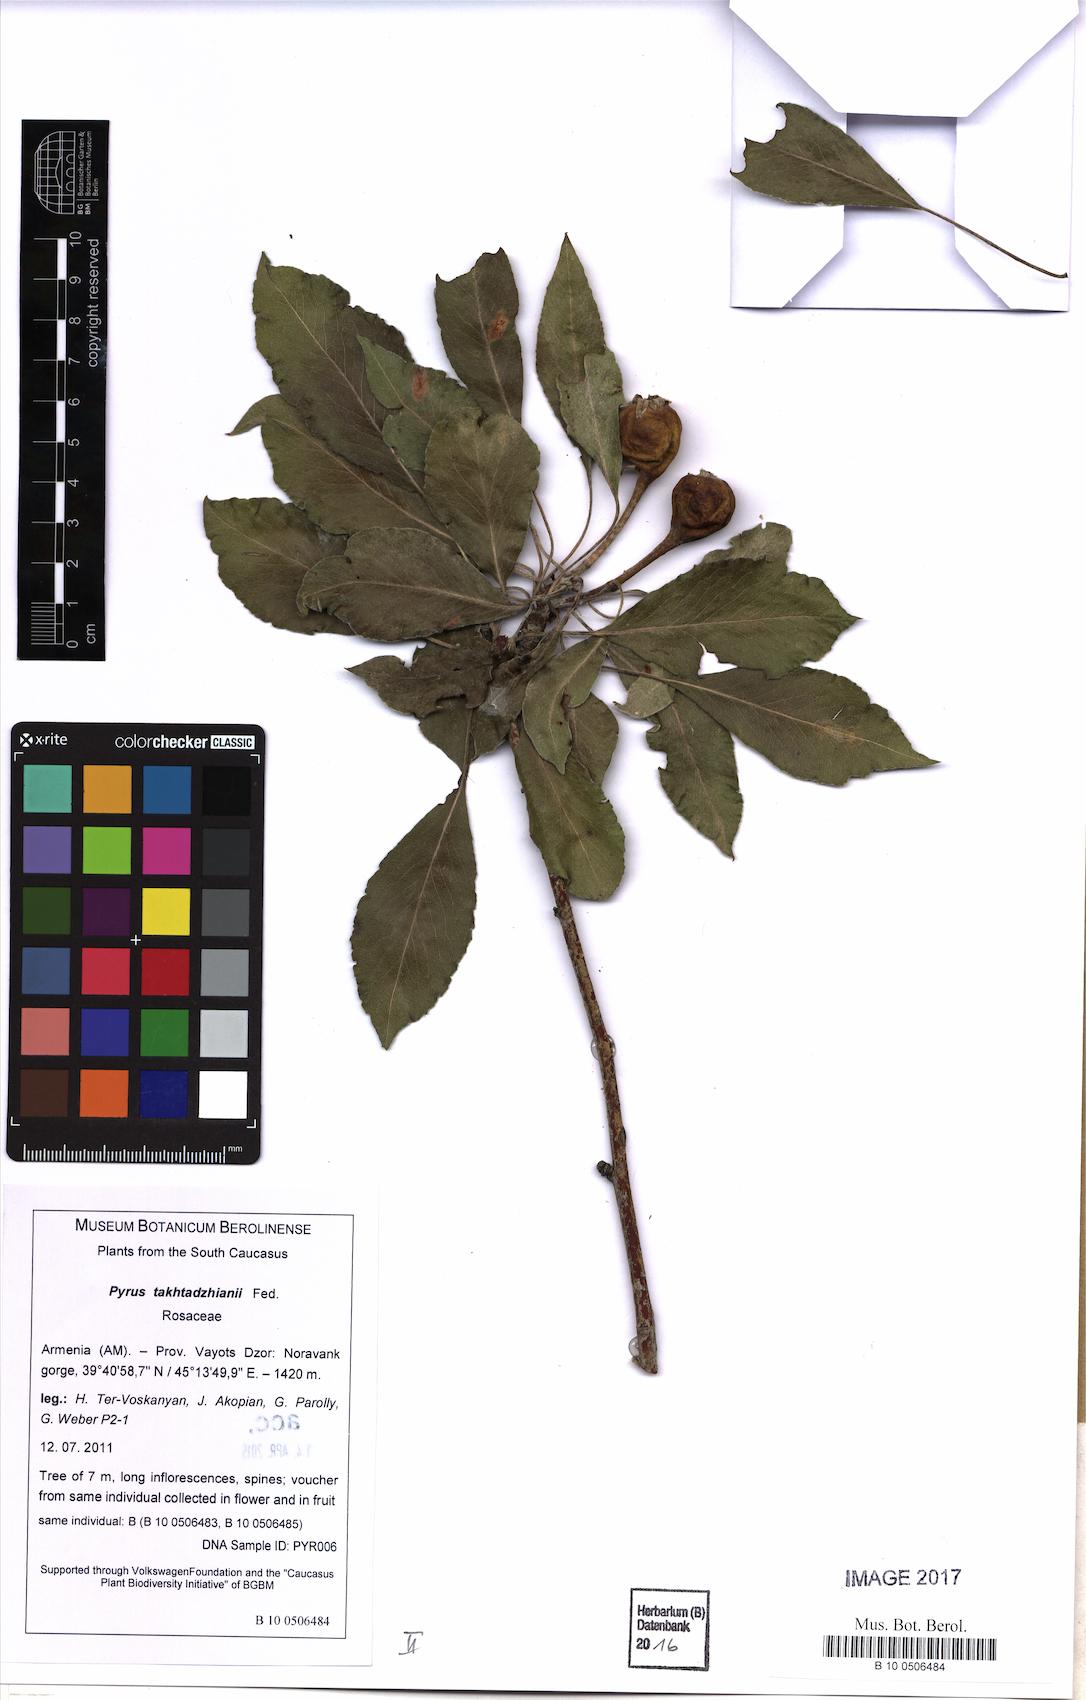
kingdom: Plantae
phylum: Tracheophyta
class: Magnoliopsida
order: Rosales
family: Rosaceae
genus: Pyrus
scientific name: Pyrus takhtadzhianii
